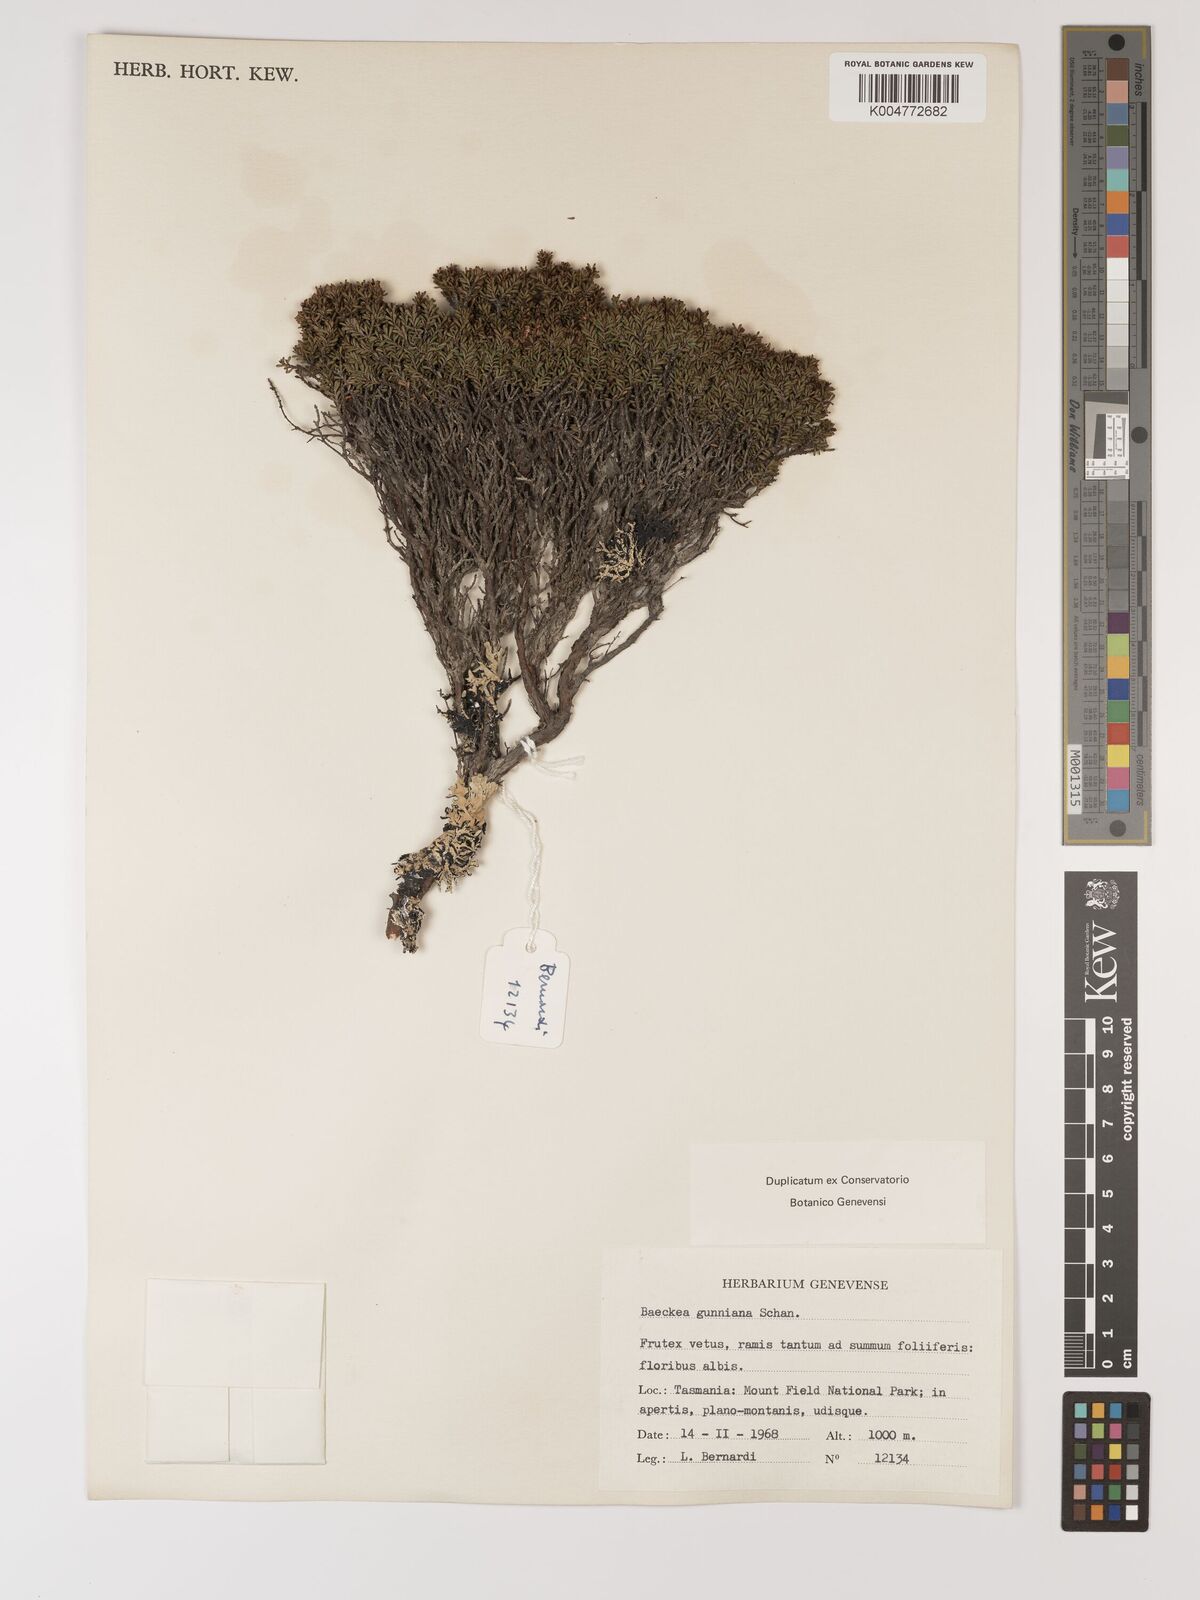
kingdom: Plantae
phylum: Tracheophyta
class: Magnoliopsida
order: Myrtales
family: Myrtaceae
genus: Baeckea
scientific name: Baeckea gunniana
